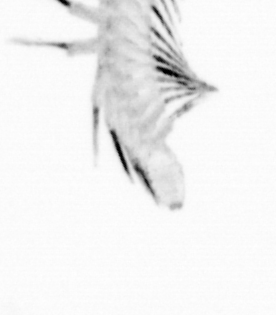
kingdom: Animalia
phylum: Annelida
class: Polychaeta
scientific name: Polychaeta
